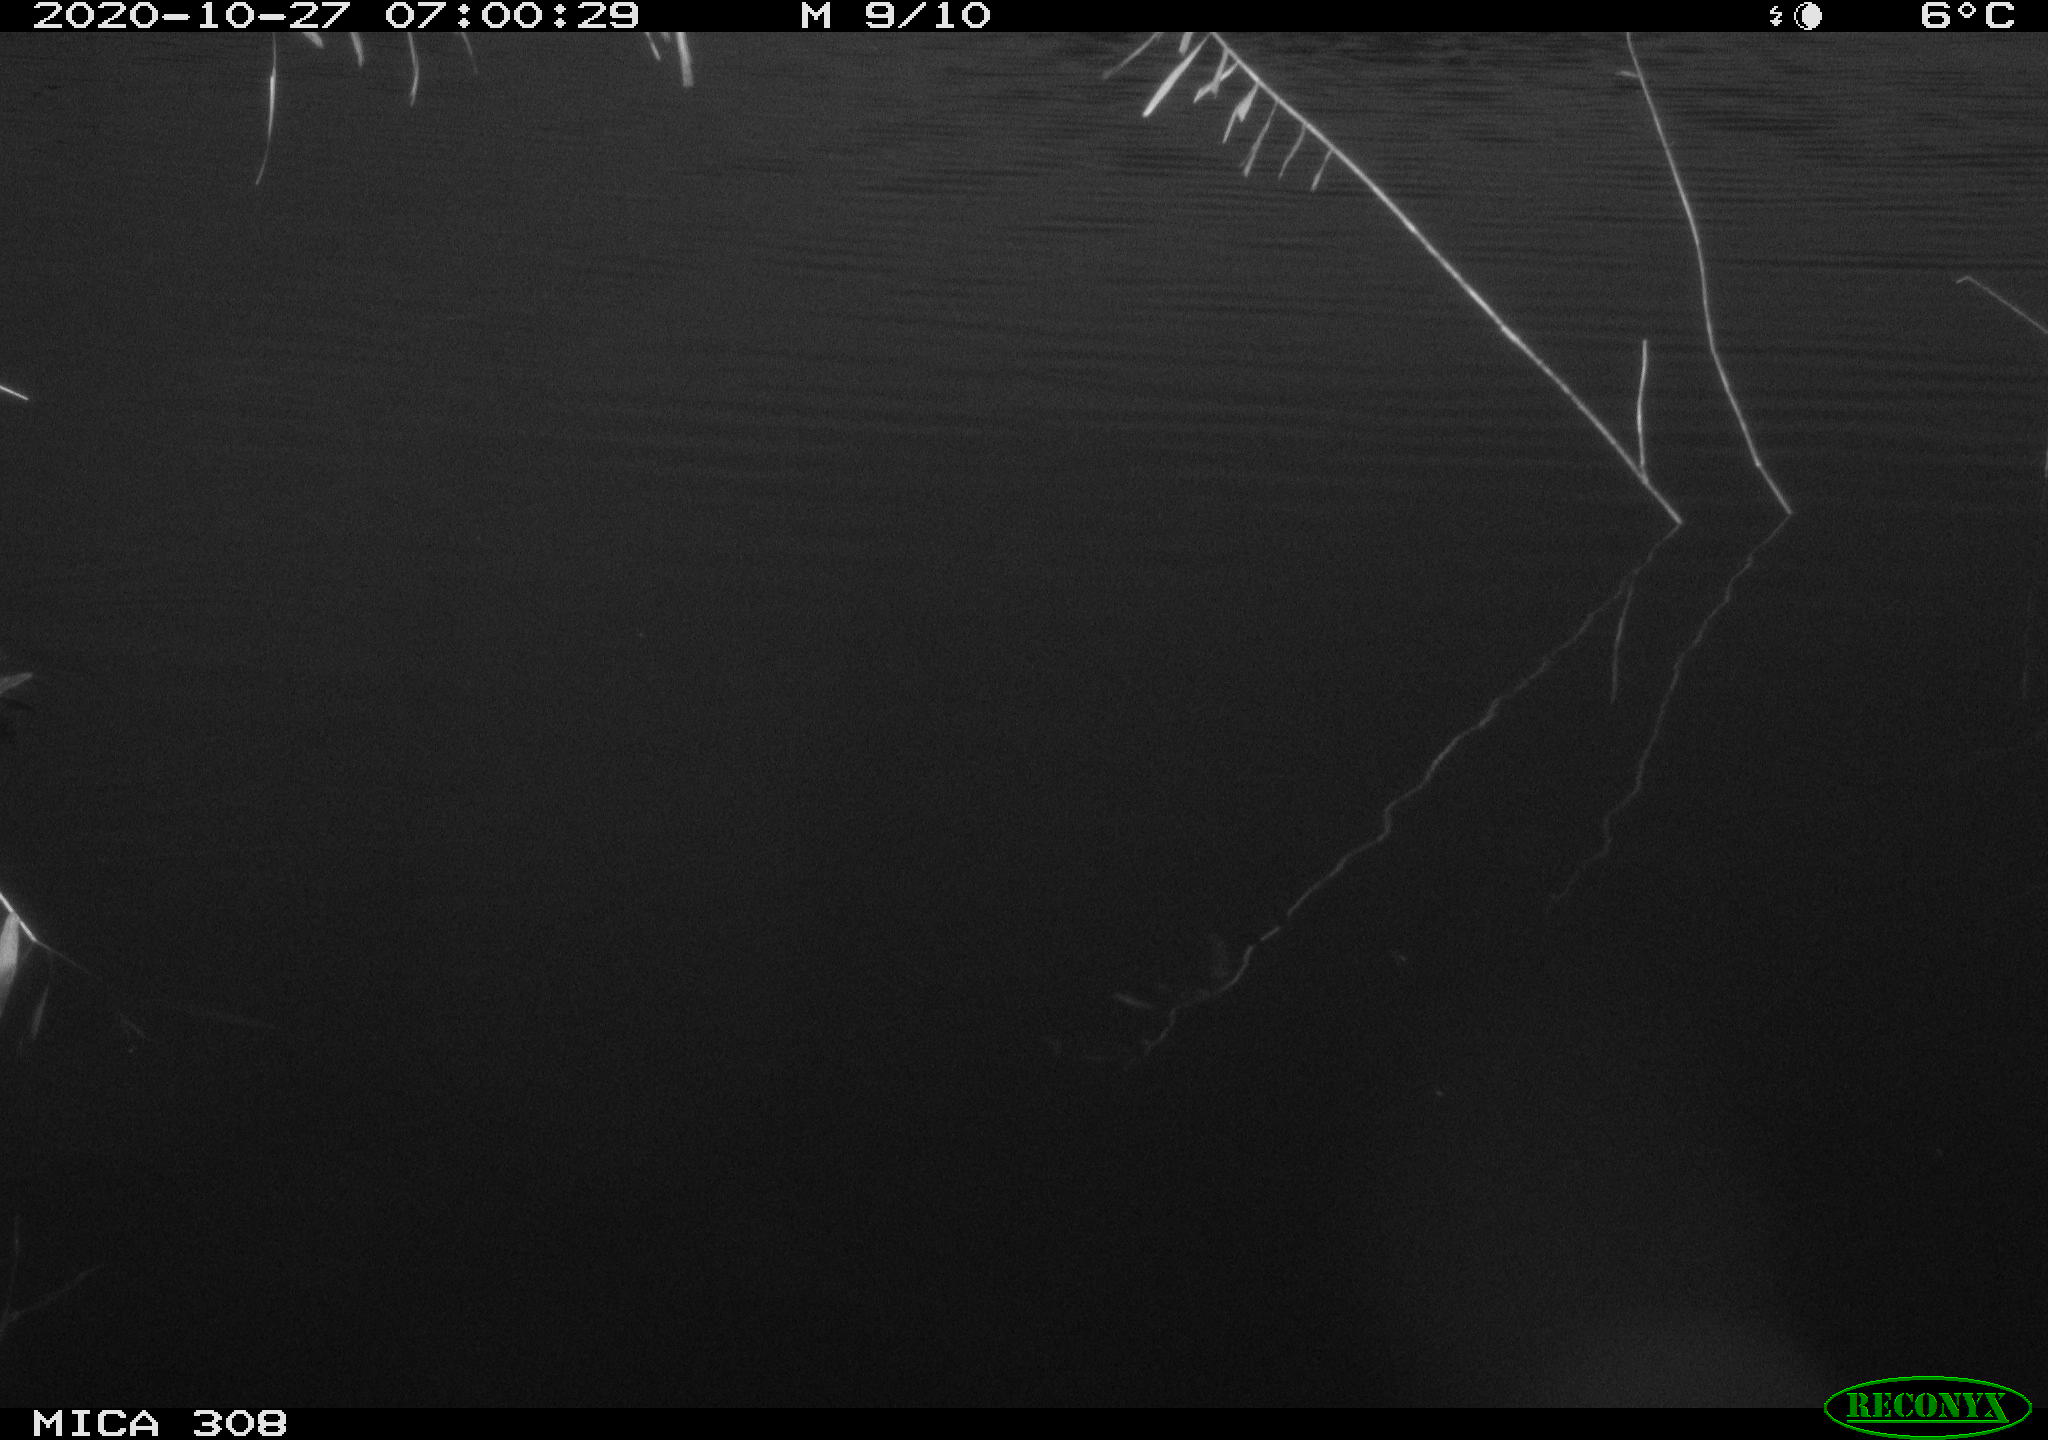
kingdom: Animalia
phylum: Chordata
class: Aves
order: Gruiformes
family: Rallidae
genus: Gallinula
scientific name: Gallinula chloropus
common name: Common moorhen
